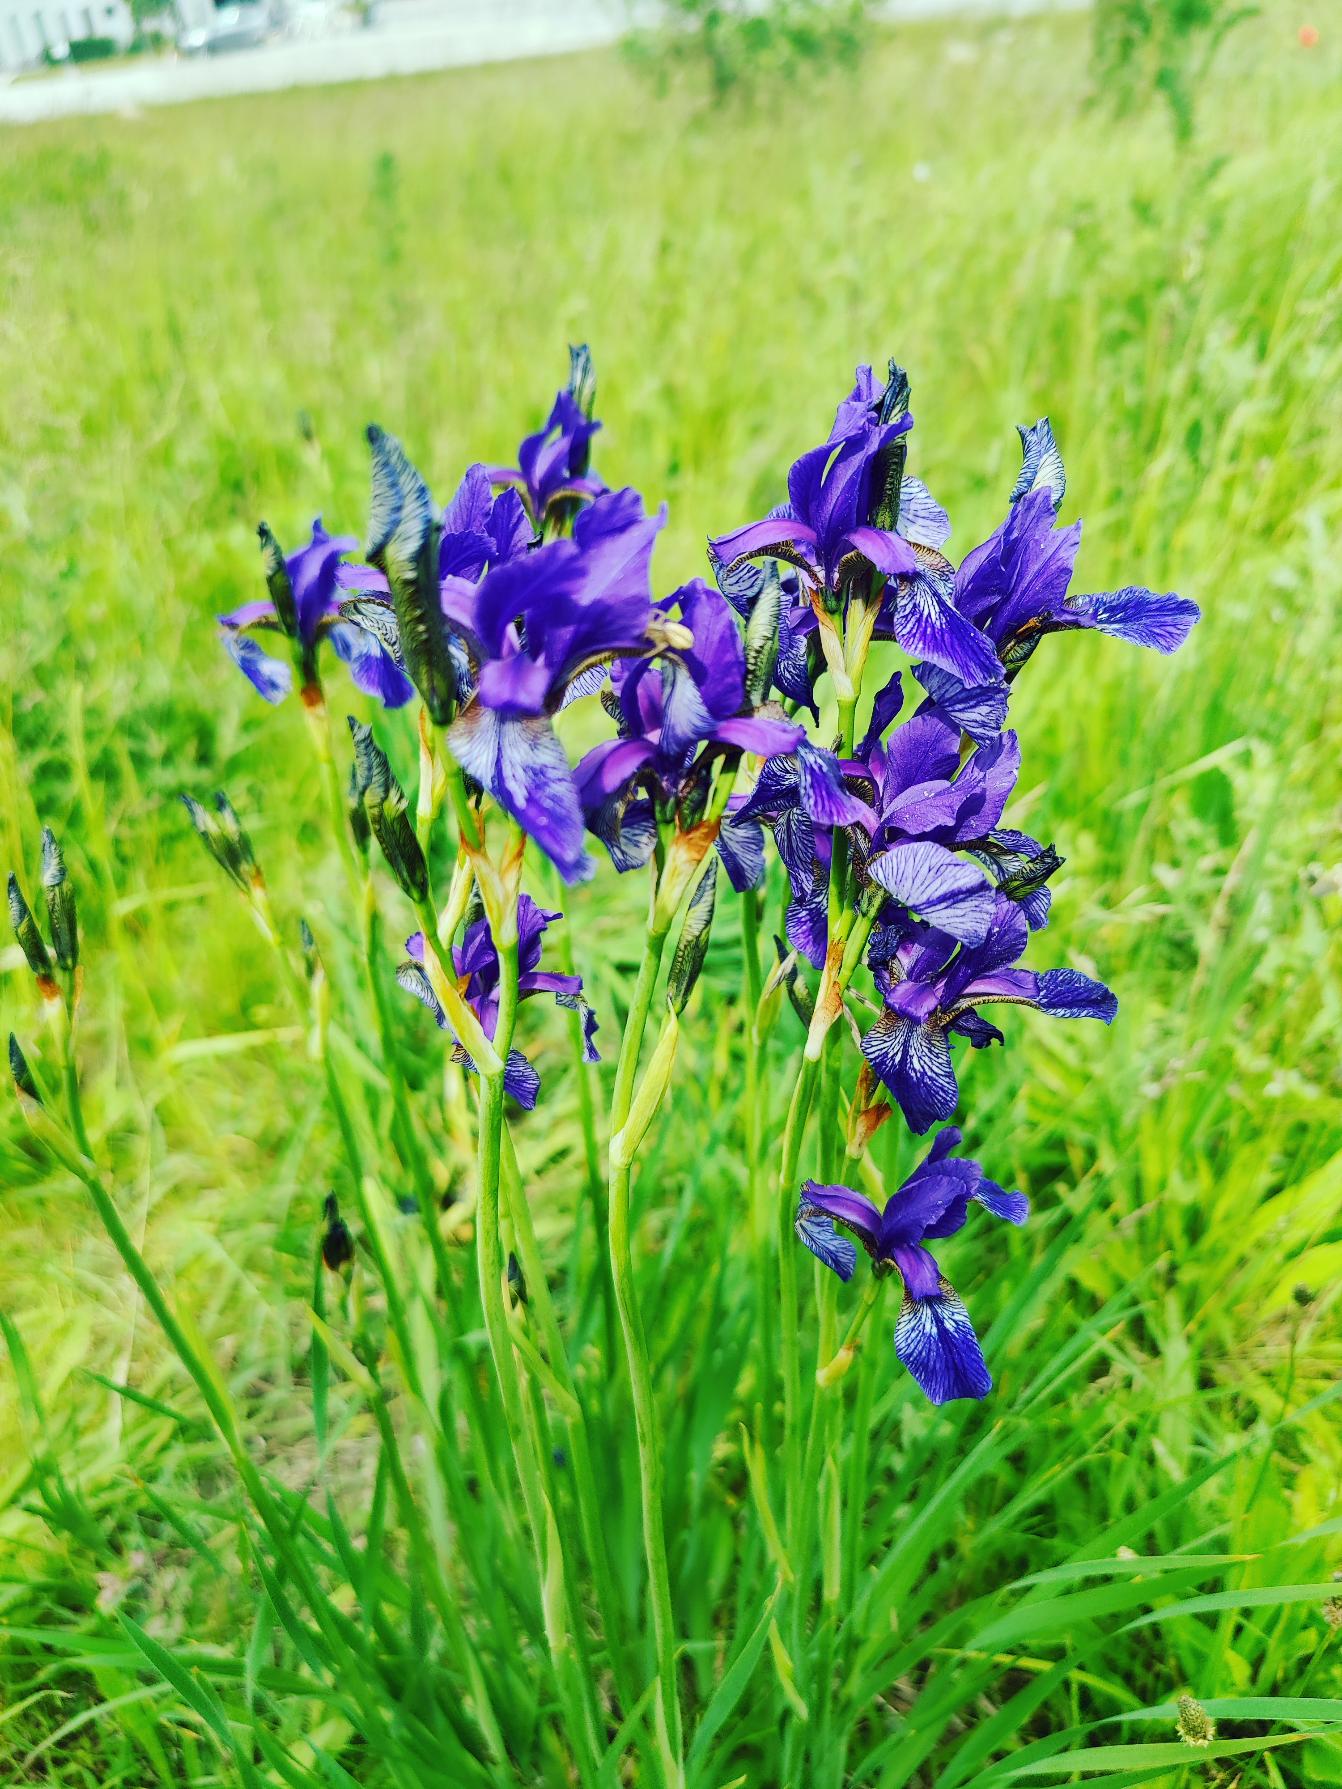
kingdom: Plantae
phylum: Tracheophyta
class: Liliopsida
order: Asparagales
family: Iridaceae
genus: Iris
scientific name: Iris sibirica
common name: Sibirisk iris
